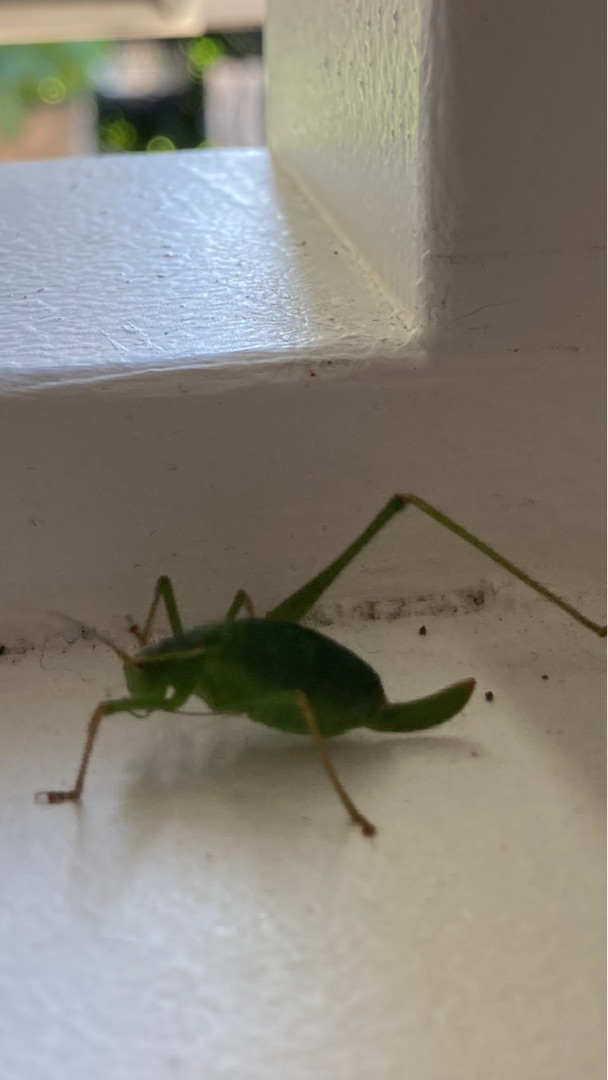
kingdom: Animalia
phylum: Arthropoda
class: Insecta
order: Orthoptera
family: Tettigoniidae
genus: Leptophyes
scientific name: Leptophyes punctatissima
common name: Krumknivgræshoppe
